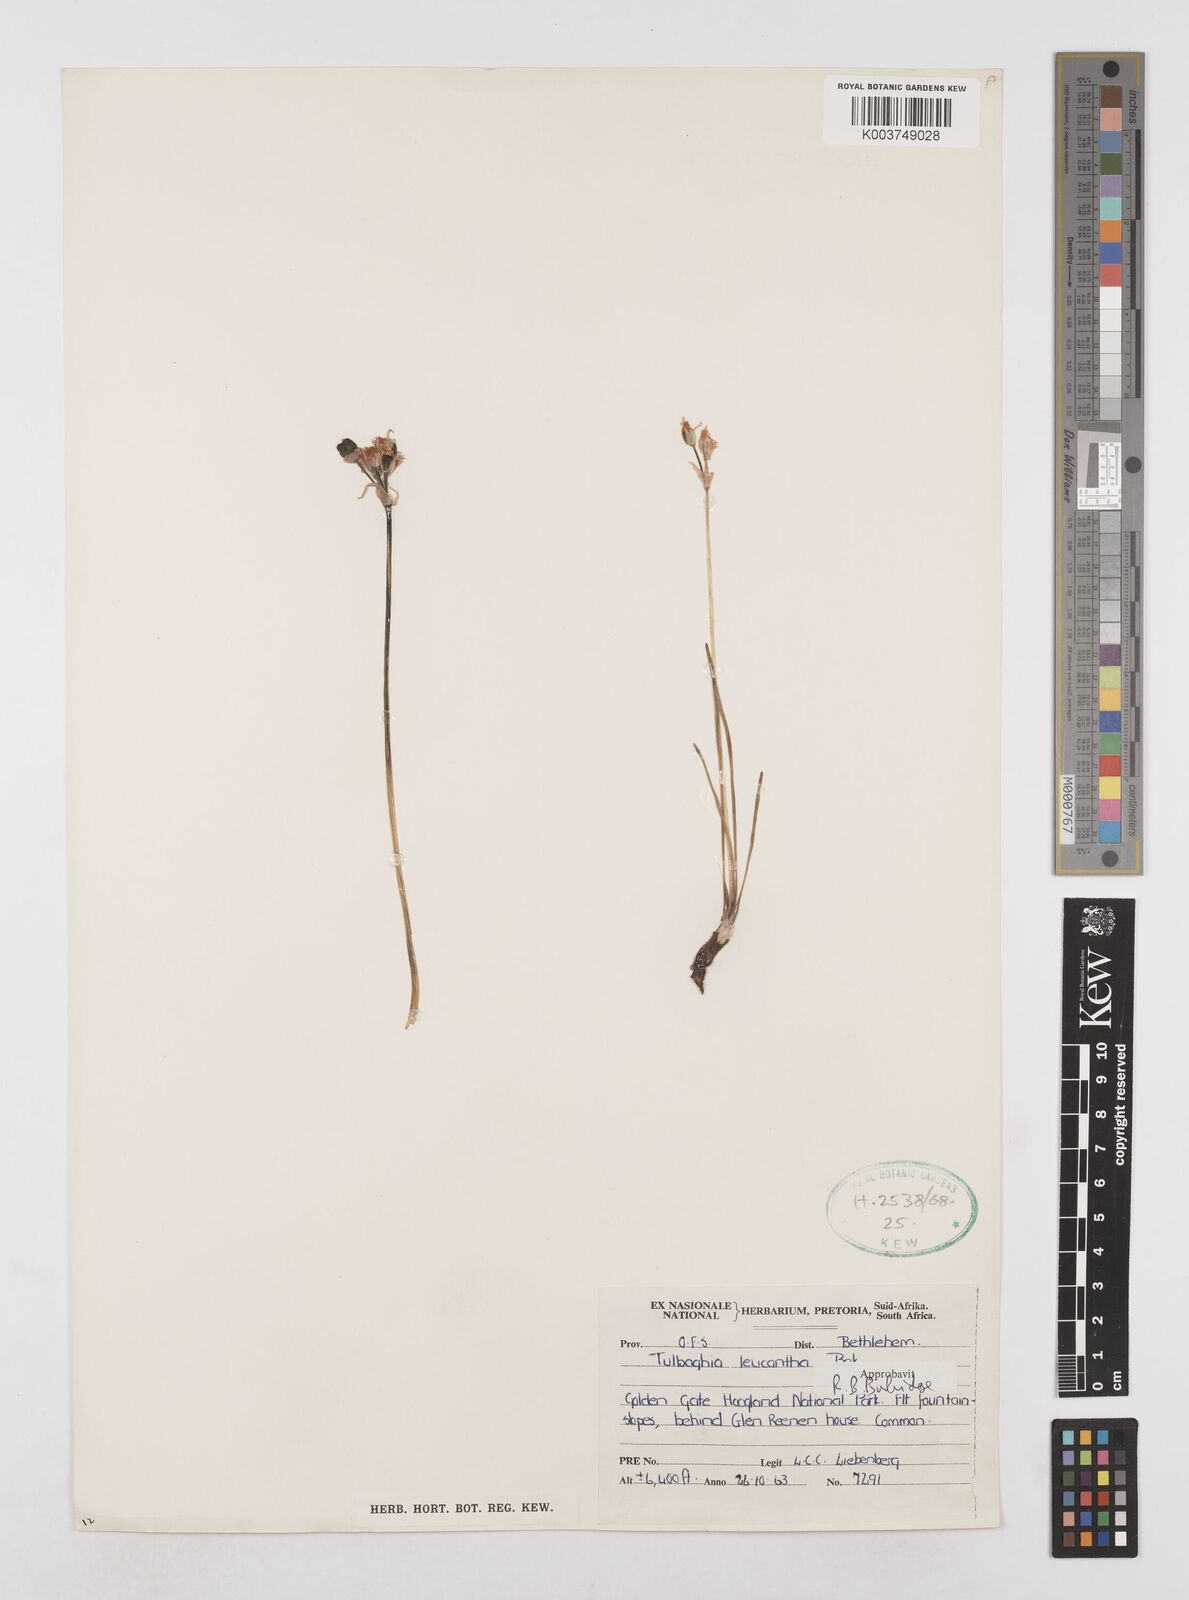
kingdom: Plantae
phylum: Tracheophyta
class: Liliopsida
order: Asparagales
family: Amaryllidaceae
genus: Tulbaghia
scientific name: Tulbaghia leucantha
